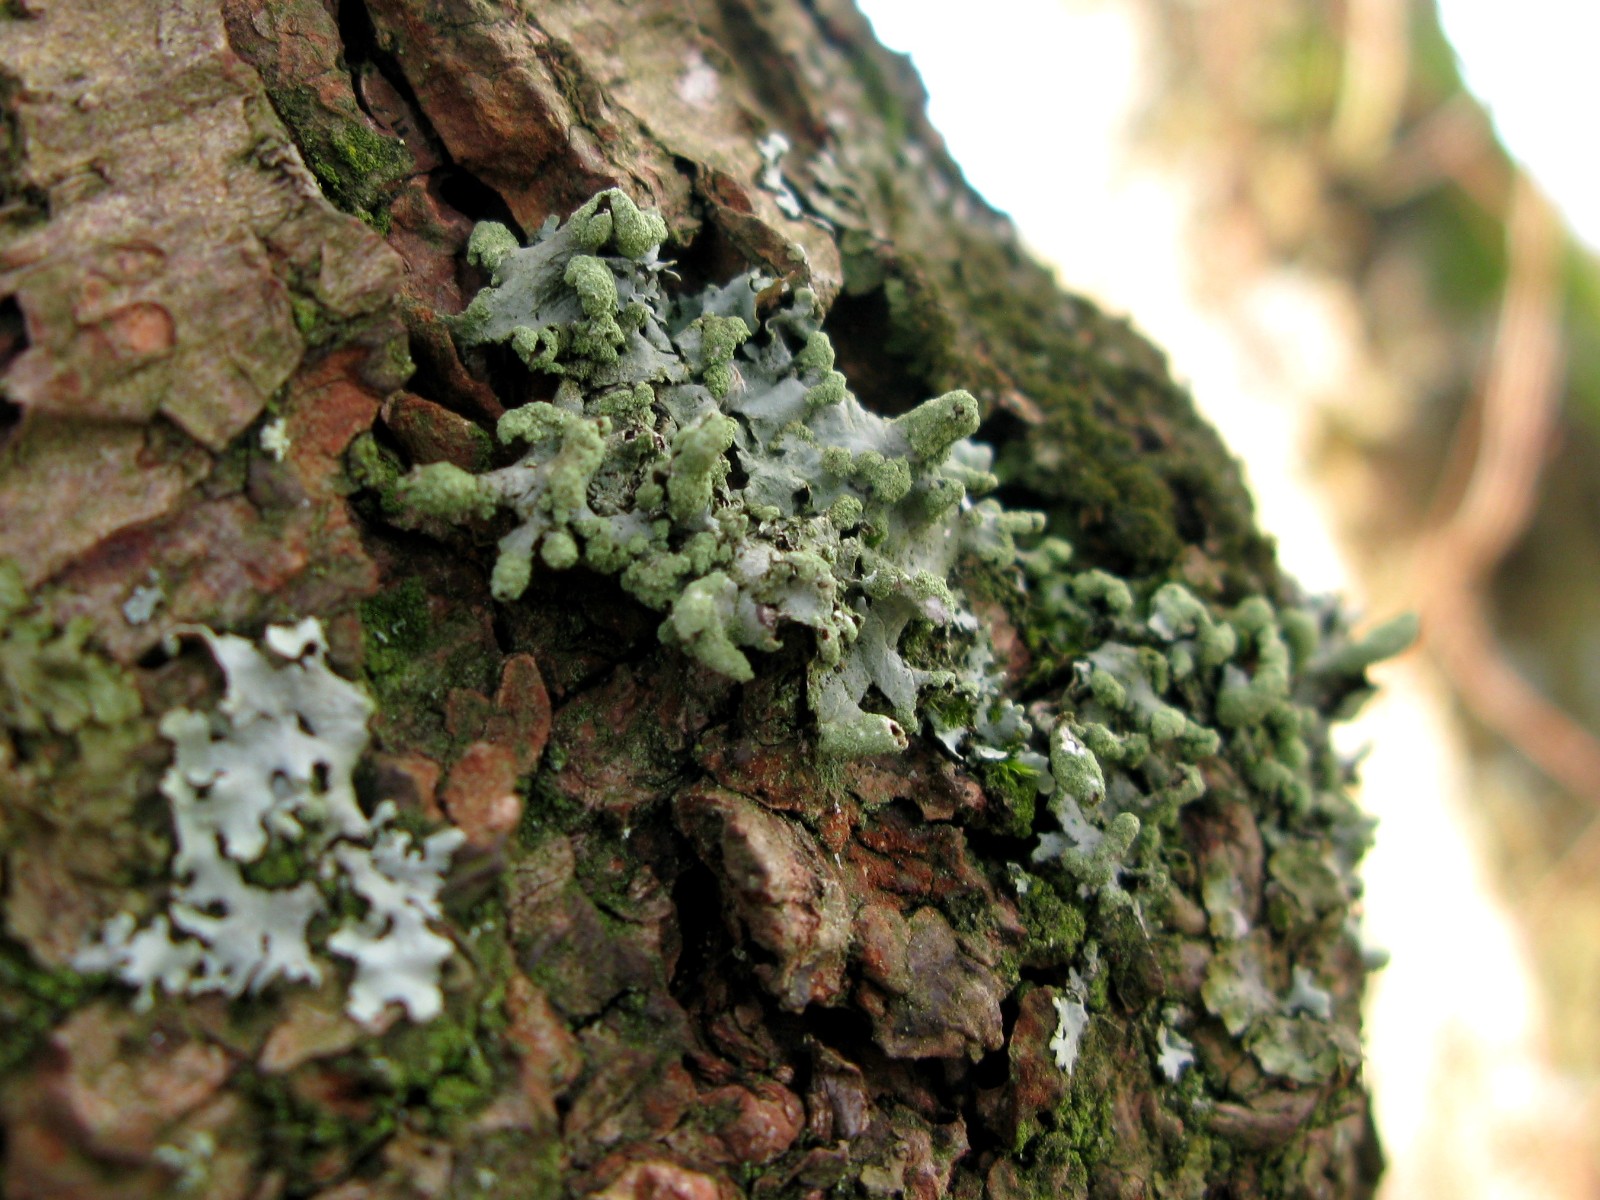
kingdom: Fungi
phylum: Ascomycota
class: Lecanoromycetes
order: Lecanorales
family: Parmeliaceae
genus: Hypotrachyna
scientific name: Hypotrachyna revoluta
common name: bleggrå skållav
